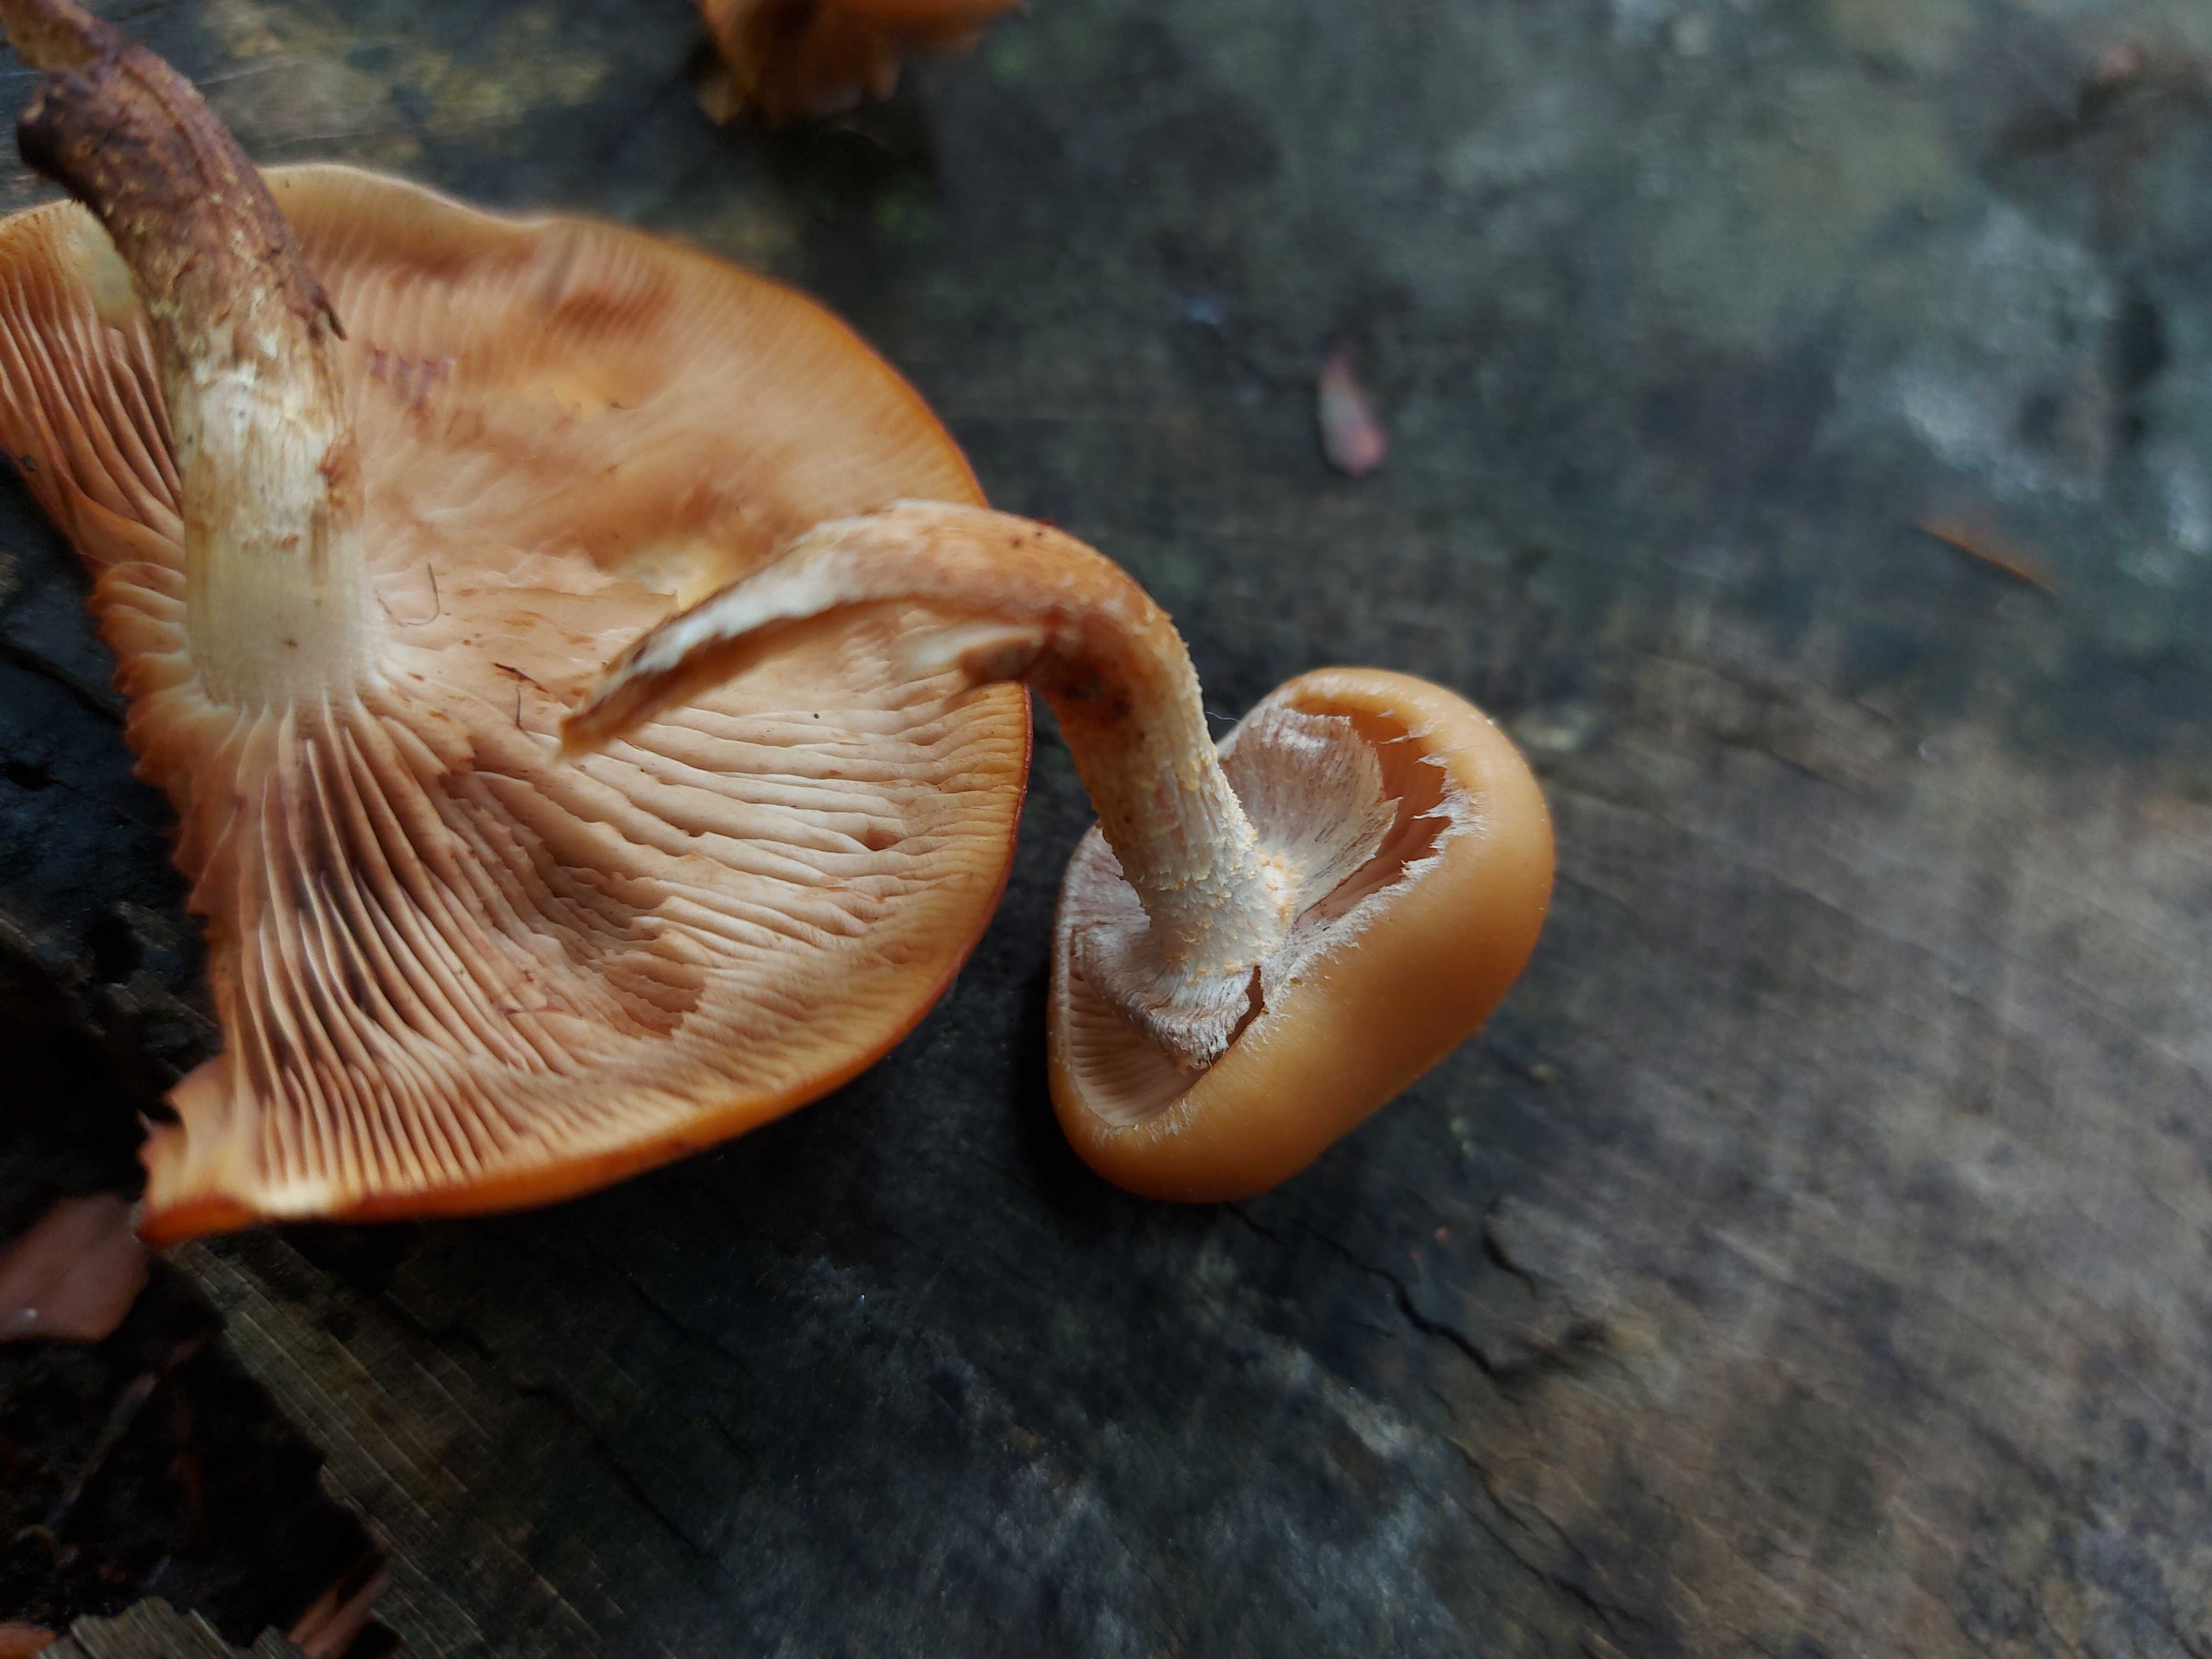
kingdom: Fungi
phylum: Basidiomycota
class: Agaricomycetes
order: Agaricales
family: Strophariaceae
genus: Kuehneromyces
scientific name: Kuehneromyces mutabilis
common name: foranderlig skælhat
